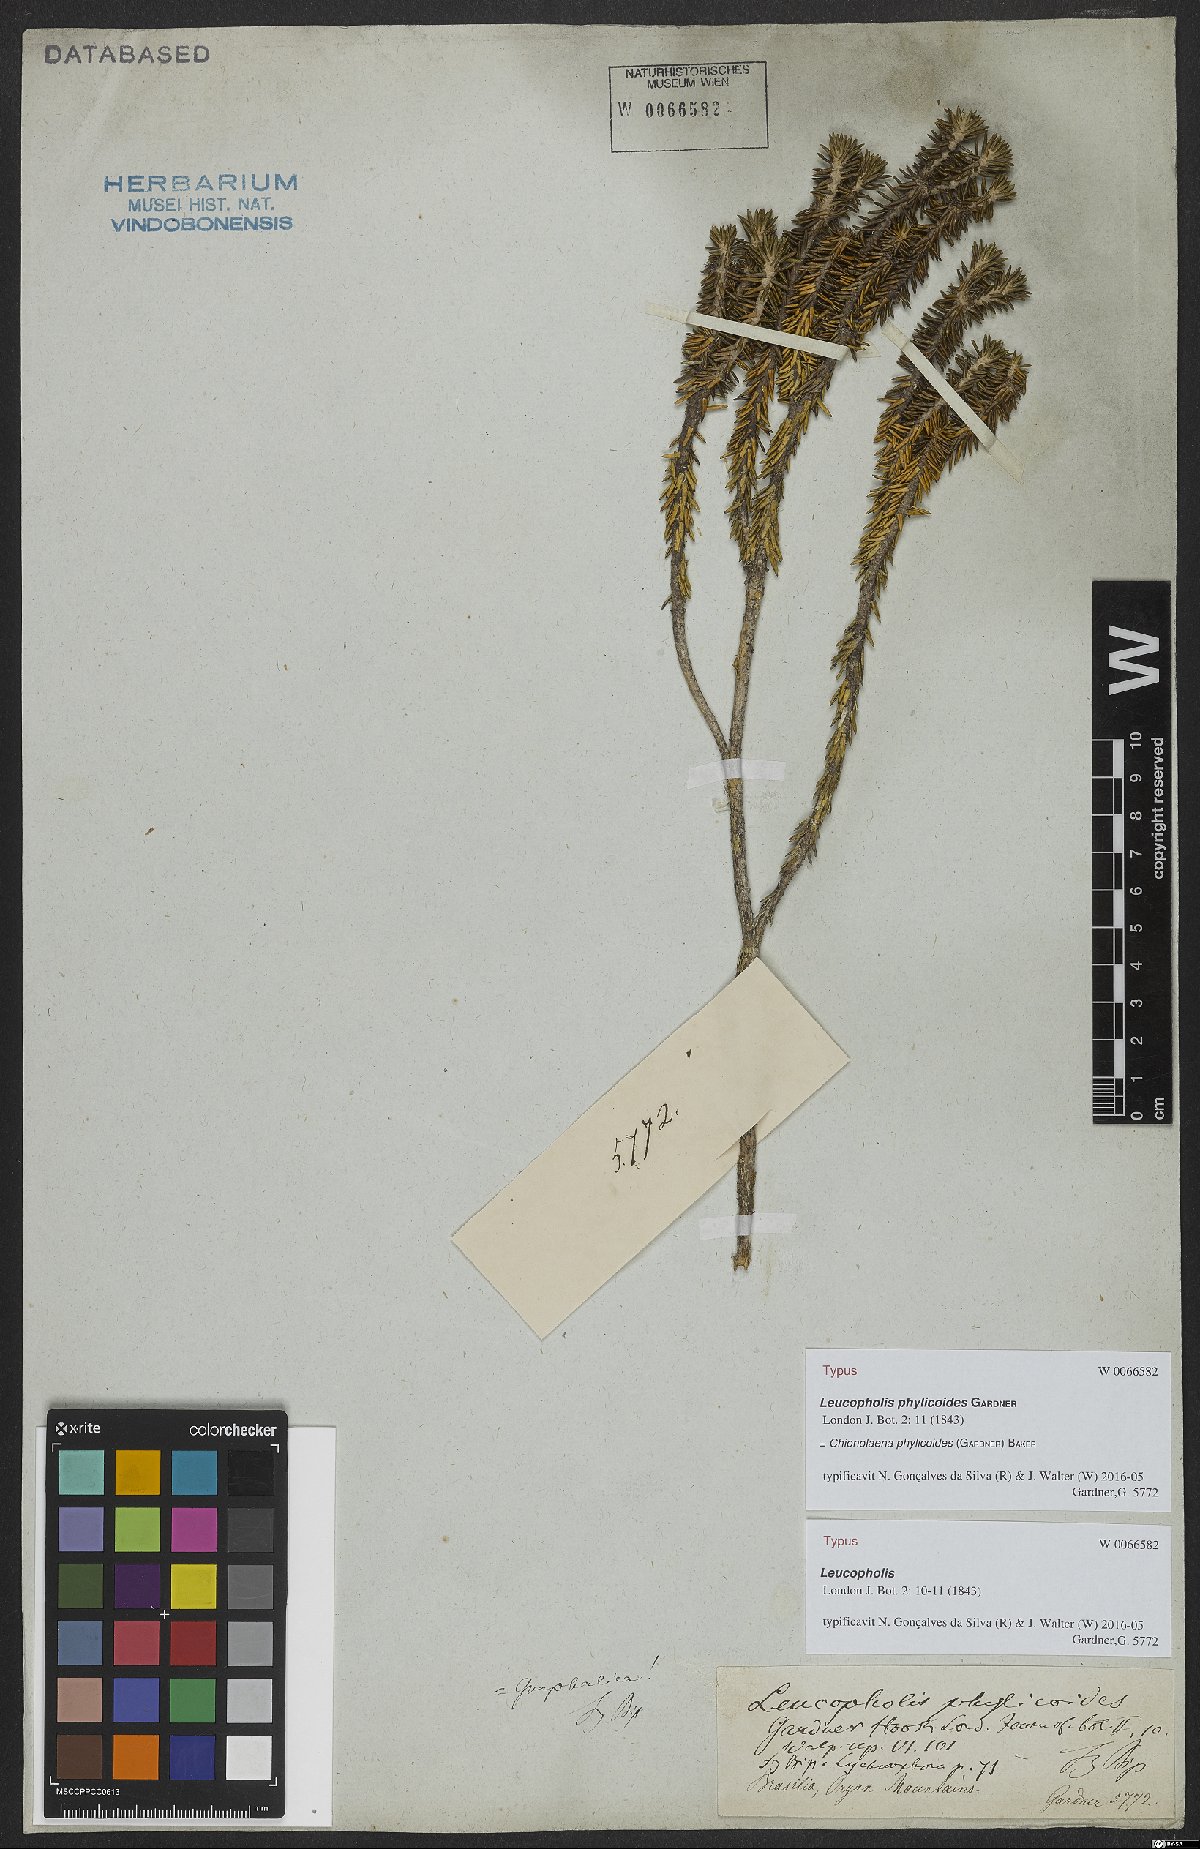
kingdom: Plantae
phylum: Tracheophyta
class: Magnoliopsida
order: Asterales
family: Asteraceae
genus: Chionolaena
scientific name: Chionolaena phylicoides
